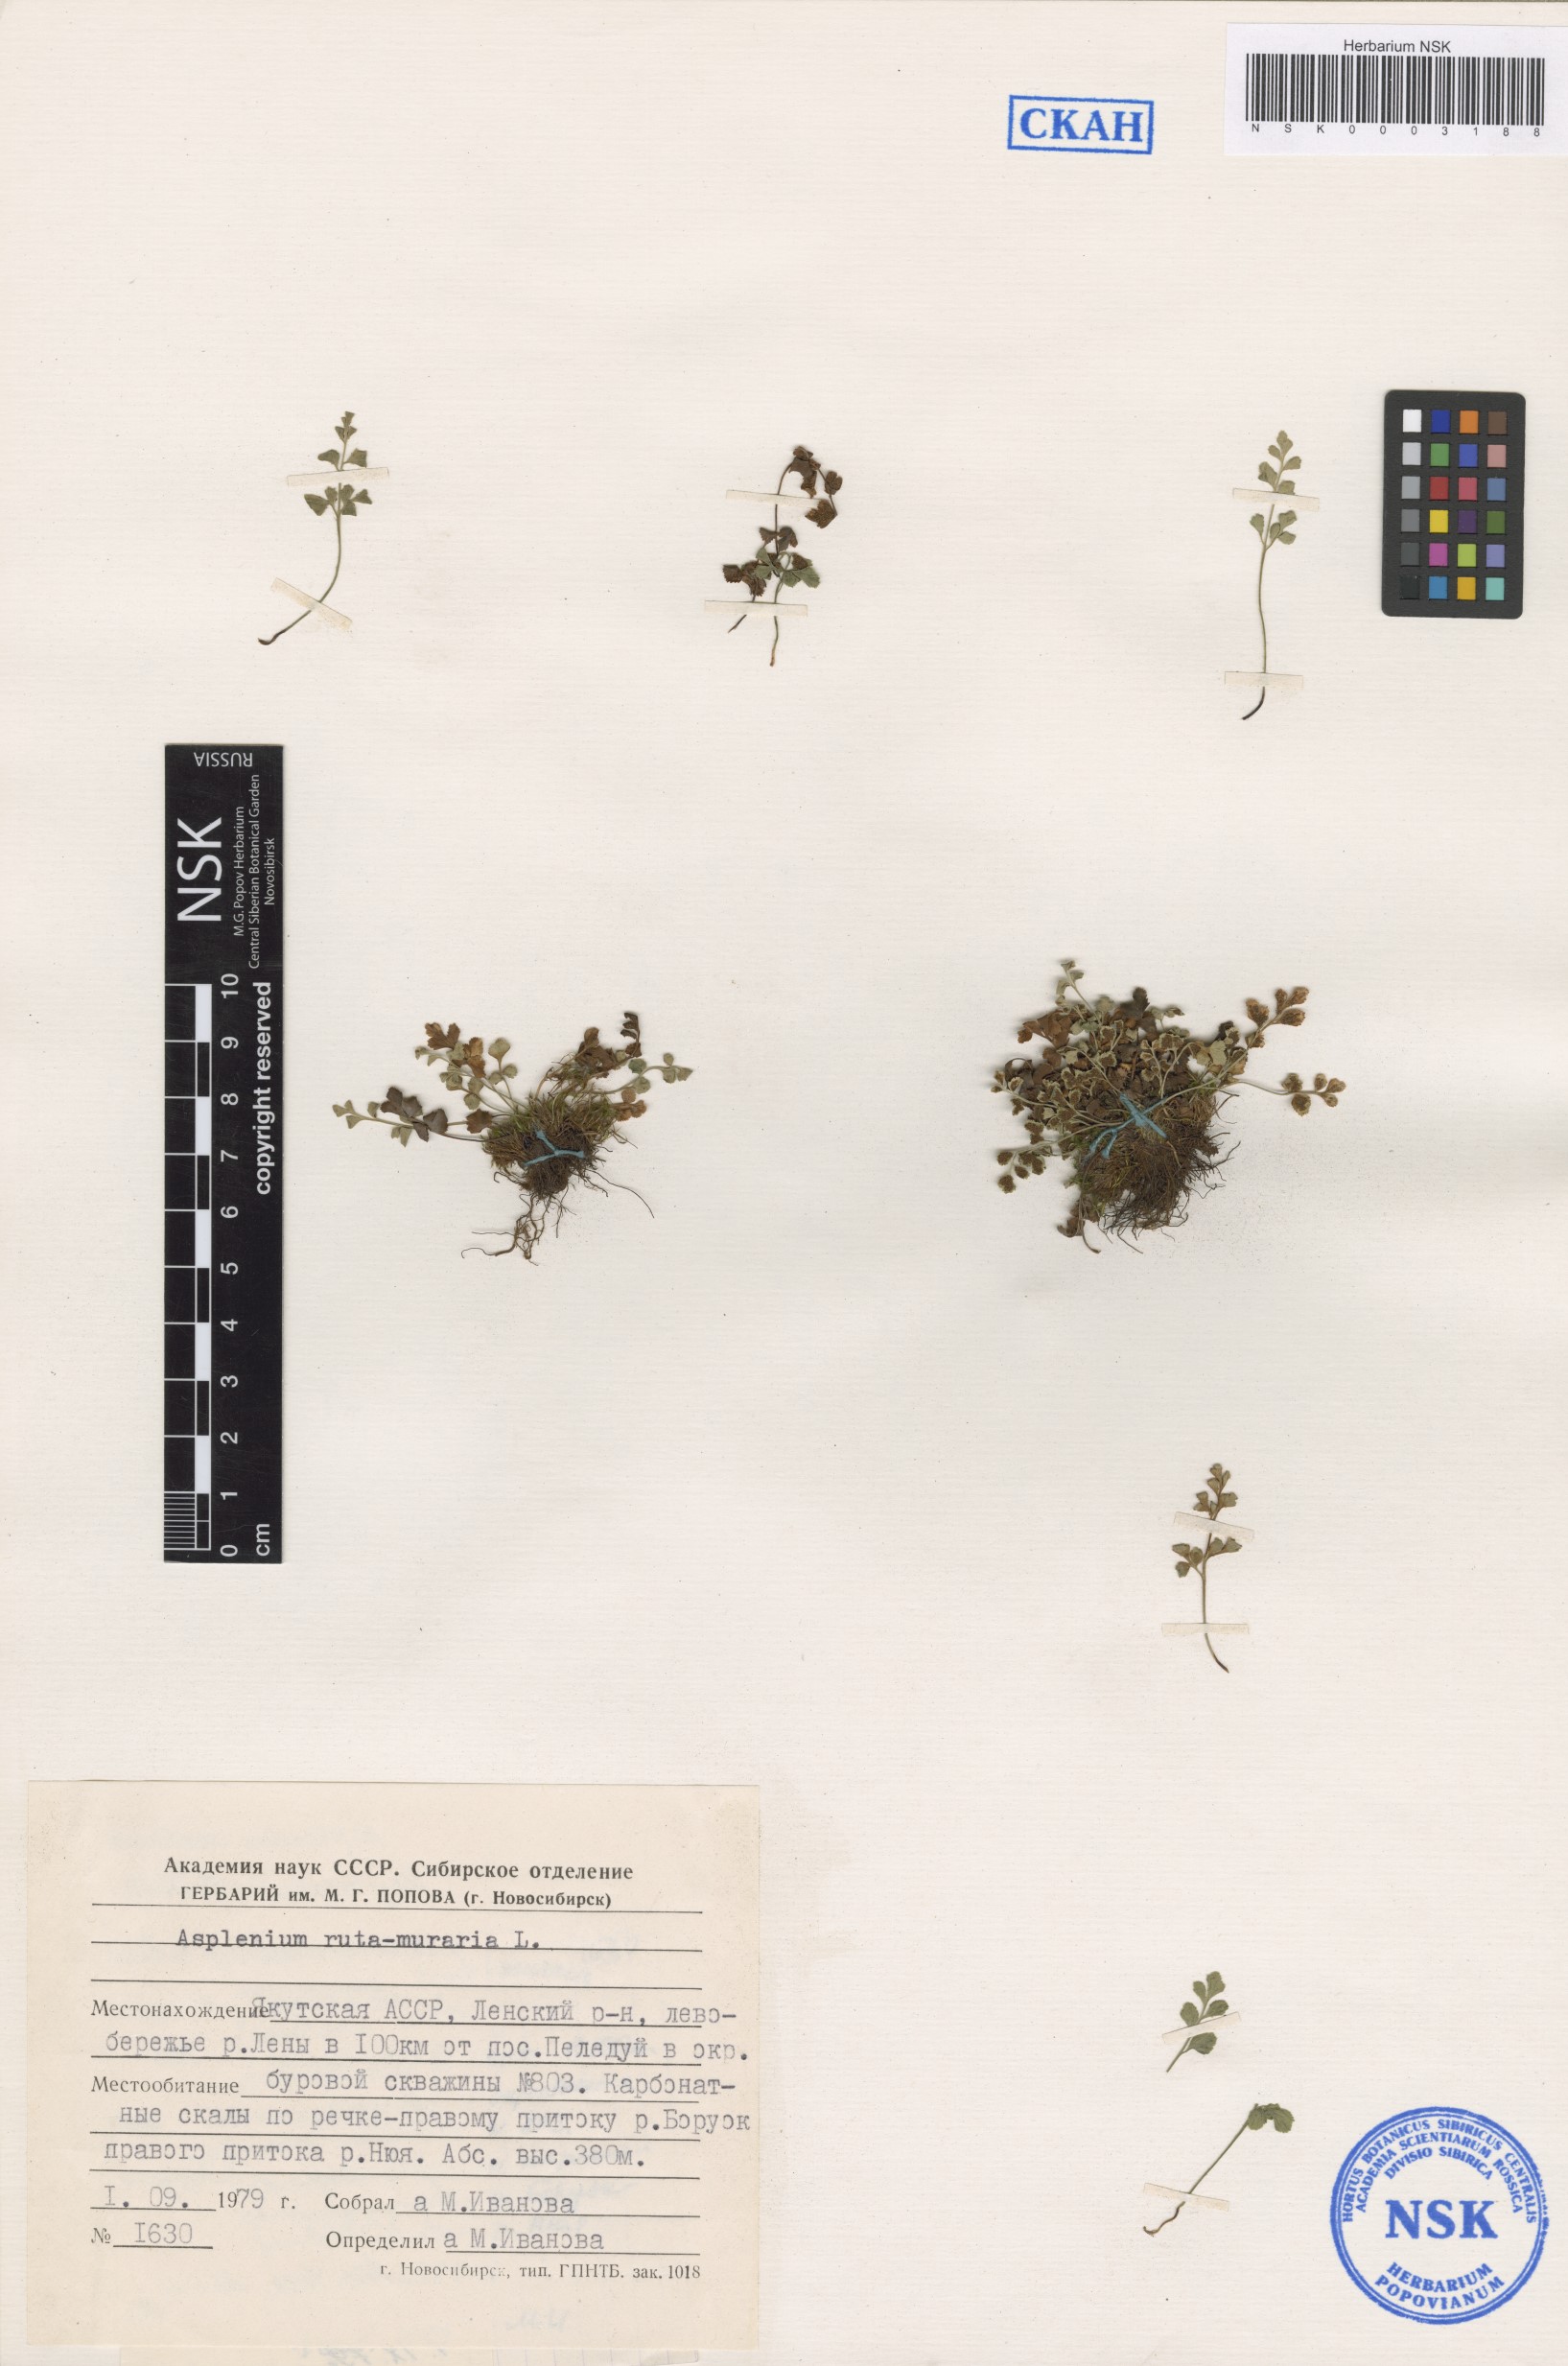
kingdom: Plantae
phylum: Tracheophyta
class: Polypodiopsida
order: Polypodiales
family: Aspleniaceae
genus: Asplenium
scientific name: Asplenium ruta-muraria
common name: Wall-rue
